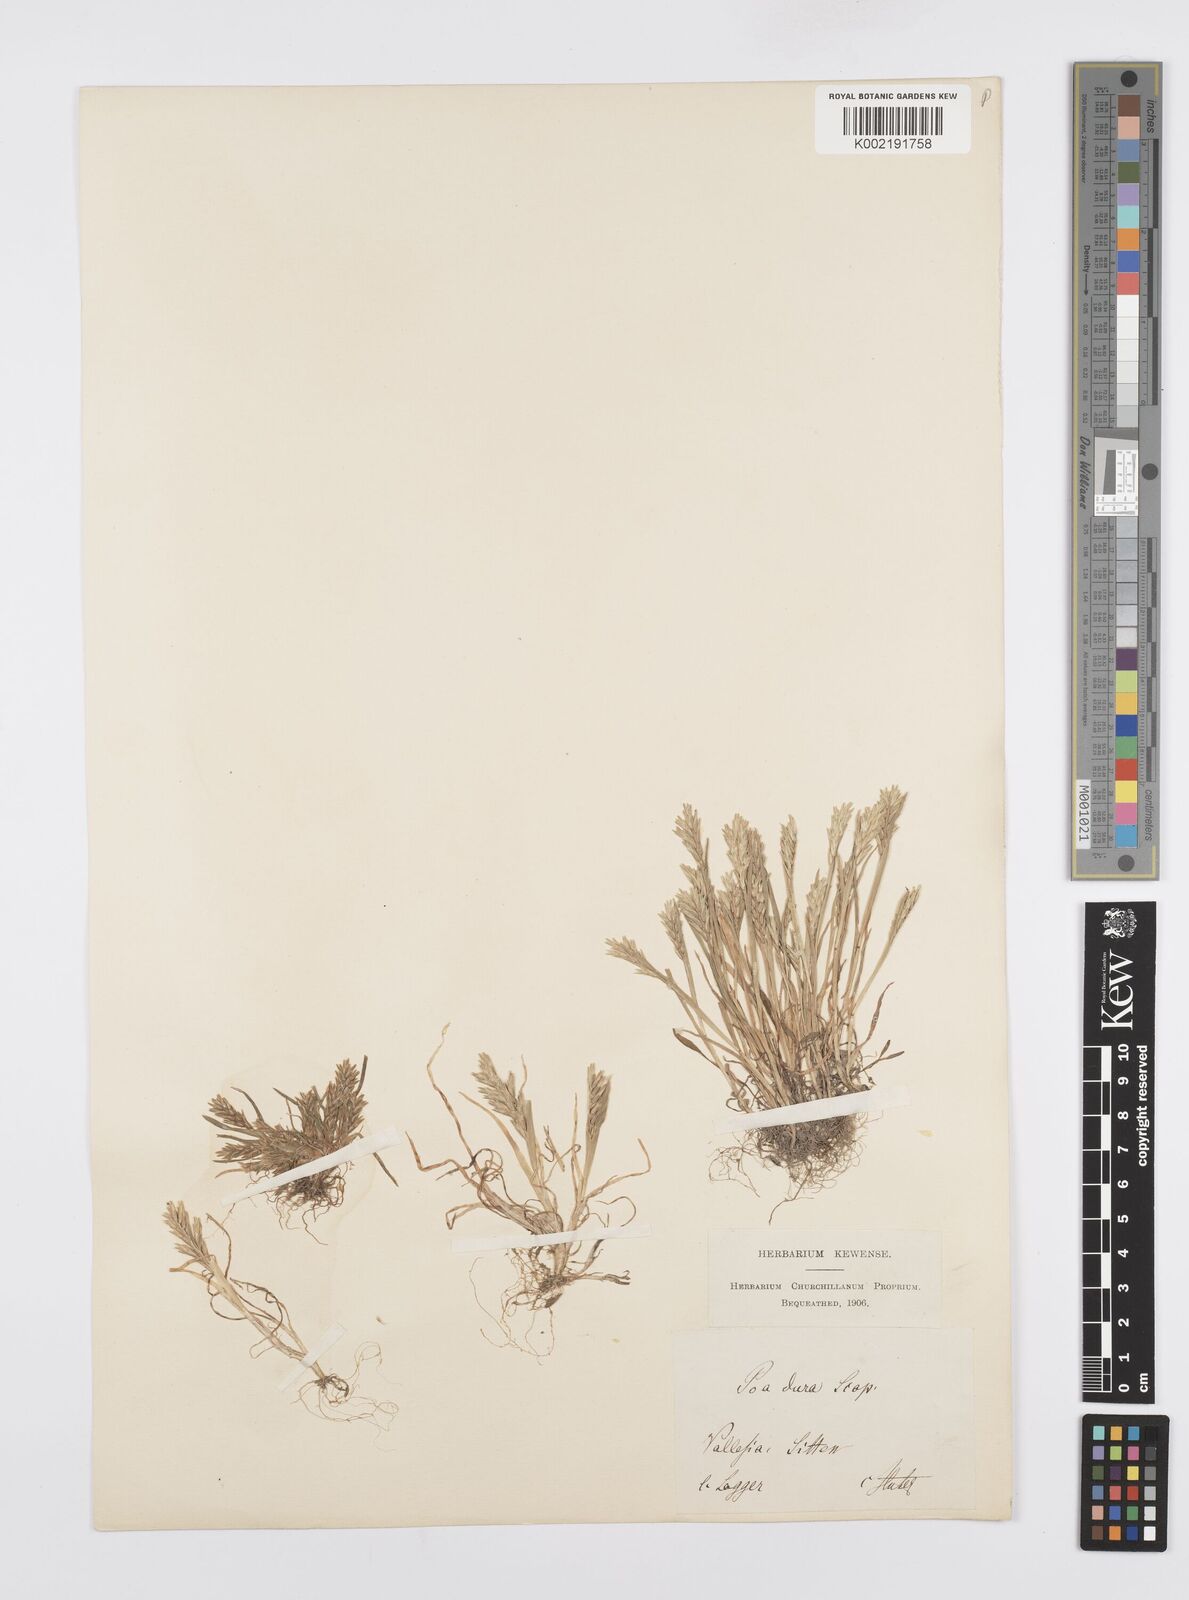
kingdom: Plantae
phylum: Tracheophyta
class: Liliopsida
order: Poales
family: Poaceae
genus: Sclerochloa
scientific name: Sclerochloa dura
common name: Common hardgrass
